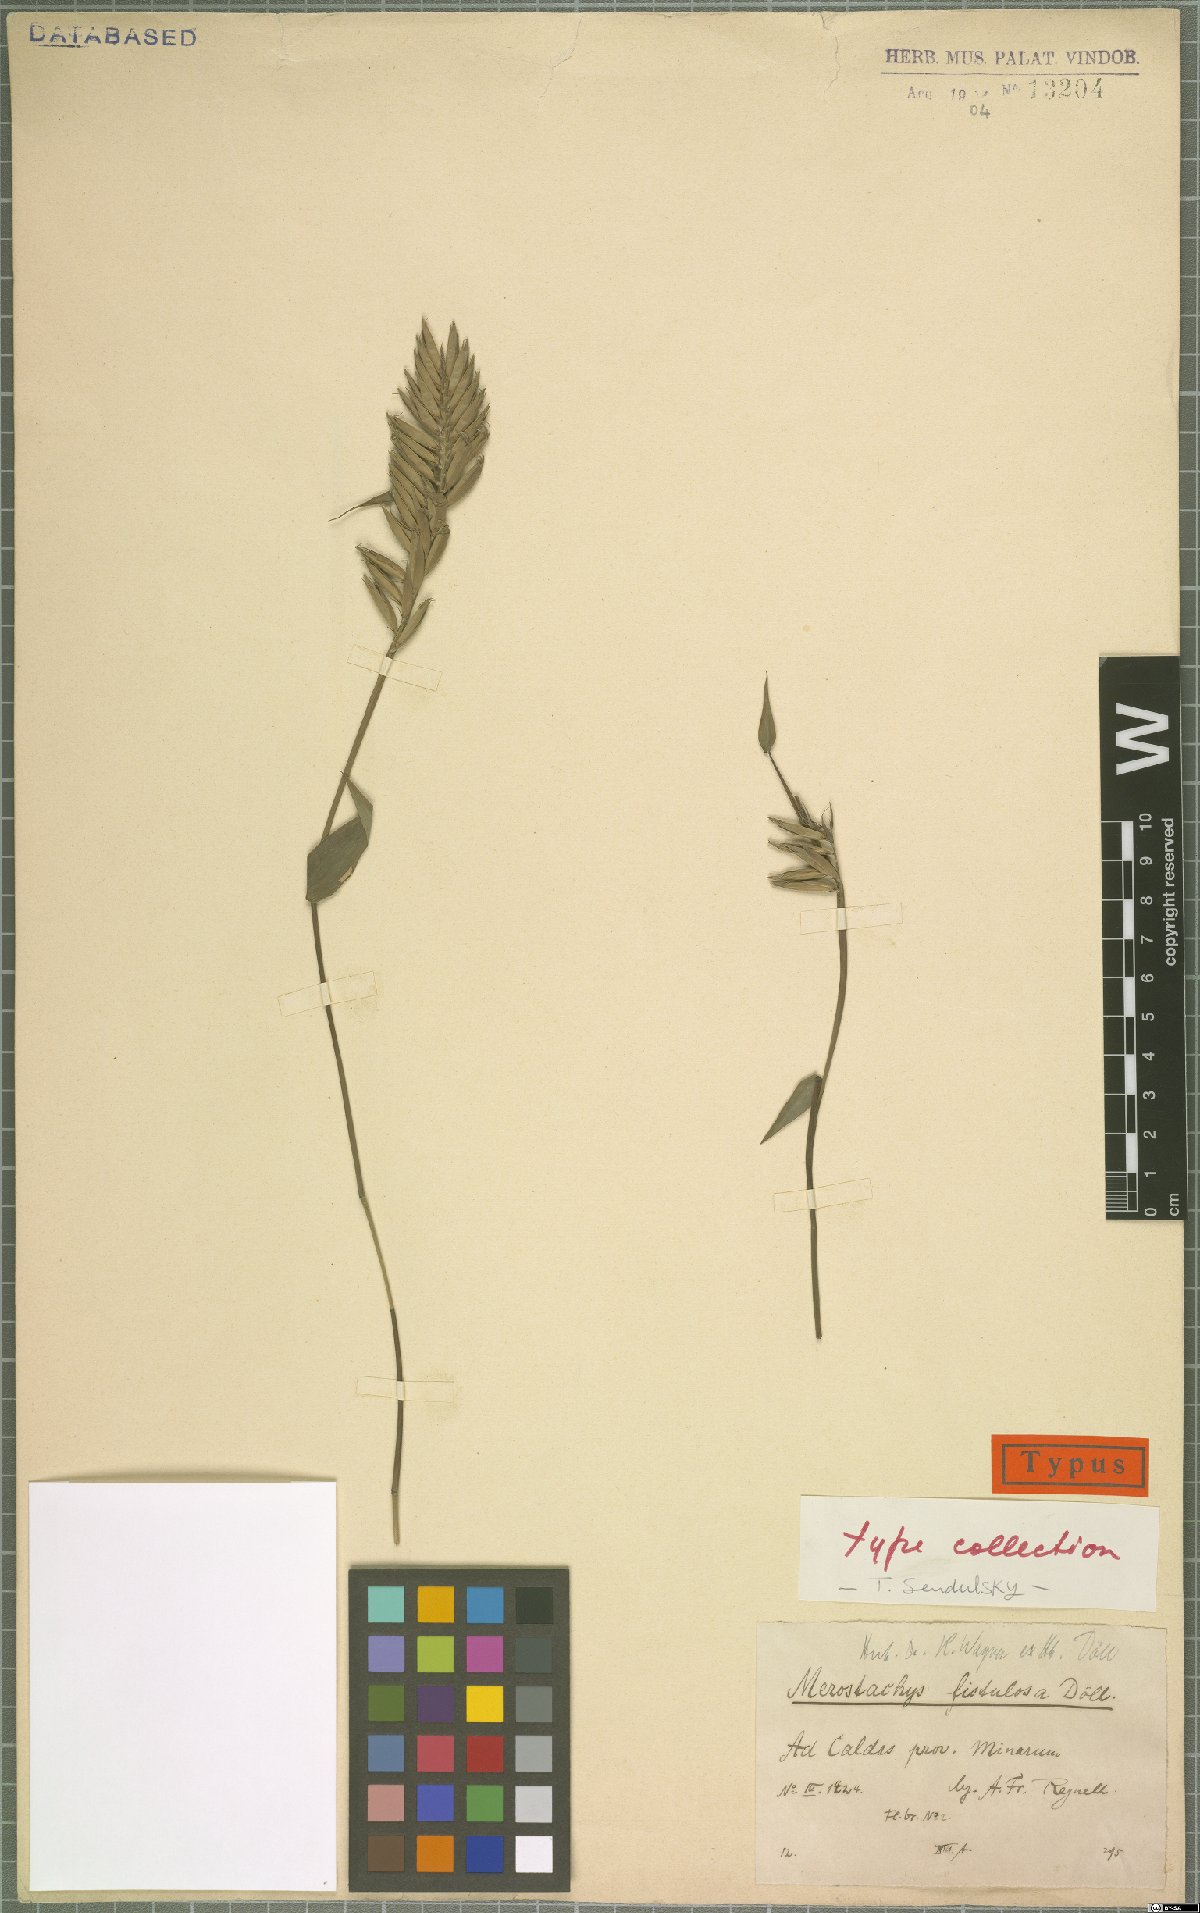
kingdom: Plantae
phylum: Tracheophyta
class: Liliopsida
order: Poales
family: Poaceae
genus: Merostachys
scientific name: Merostachys fistulosa
